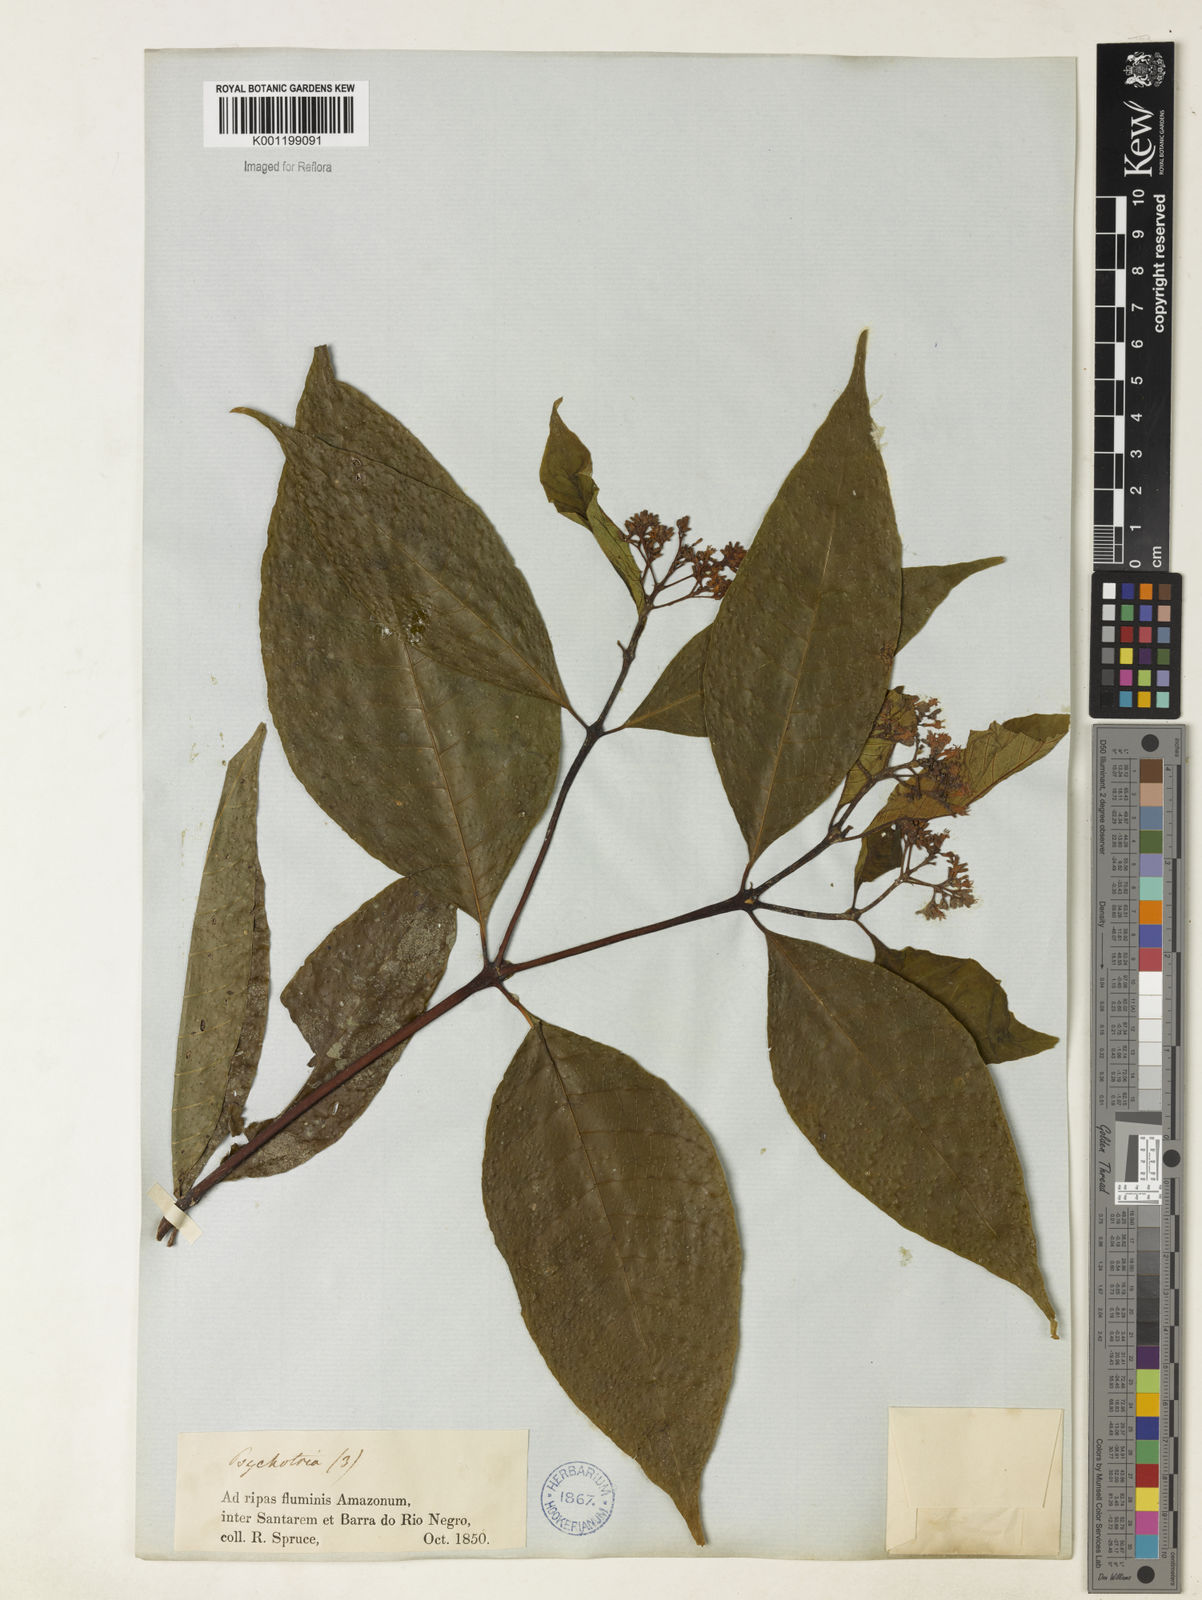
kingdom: Plantae
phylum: Tracheophyta
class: Magnoliopsida
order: Gentianales
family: Rubiaceae
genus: Palicourea
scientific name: Palicourea cuspidata
